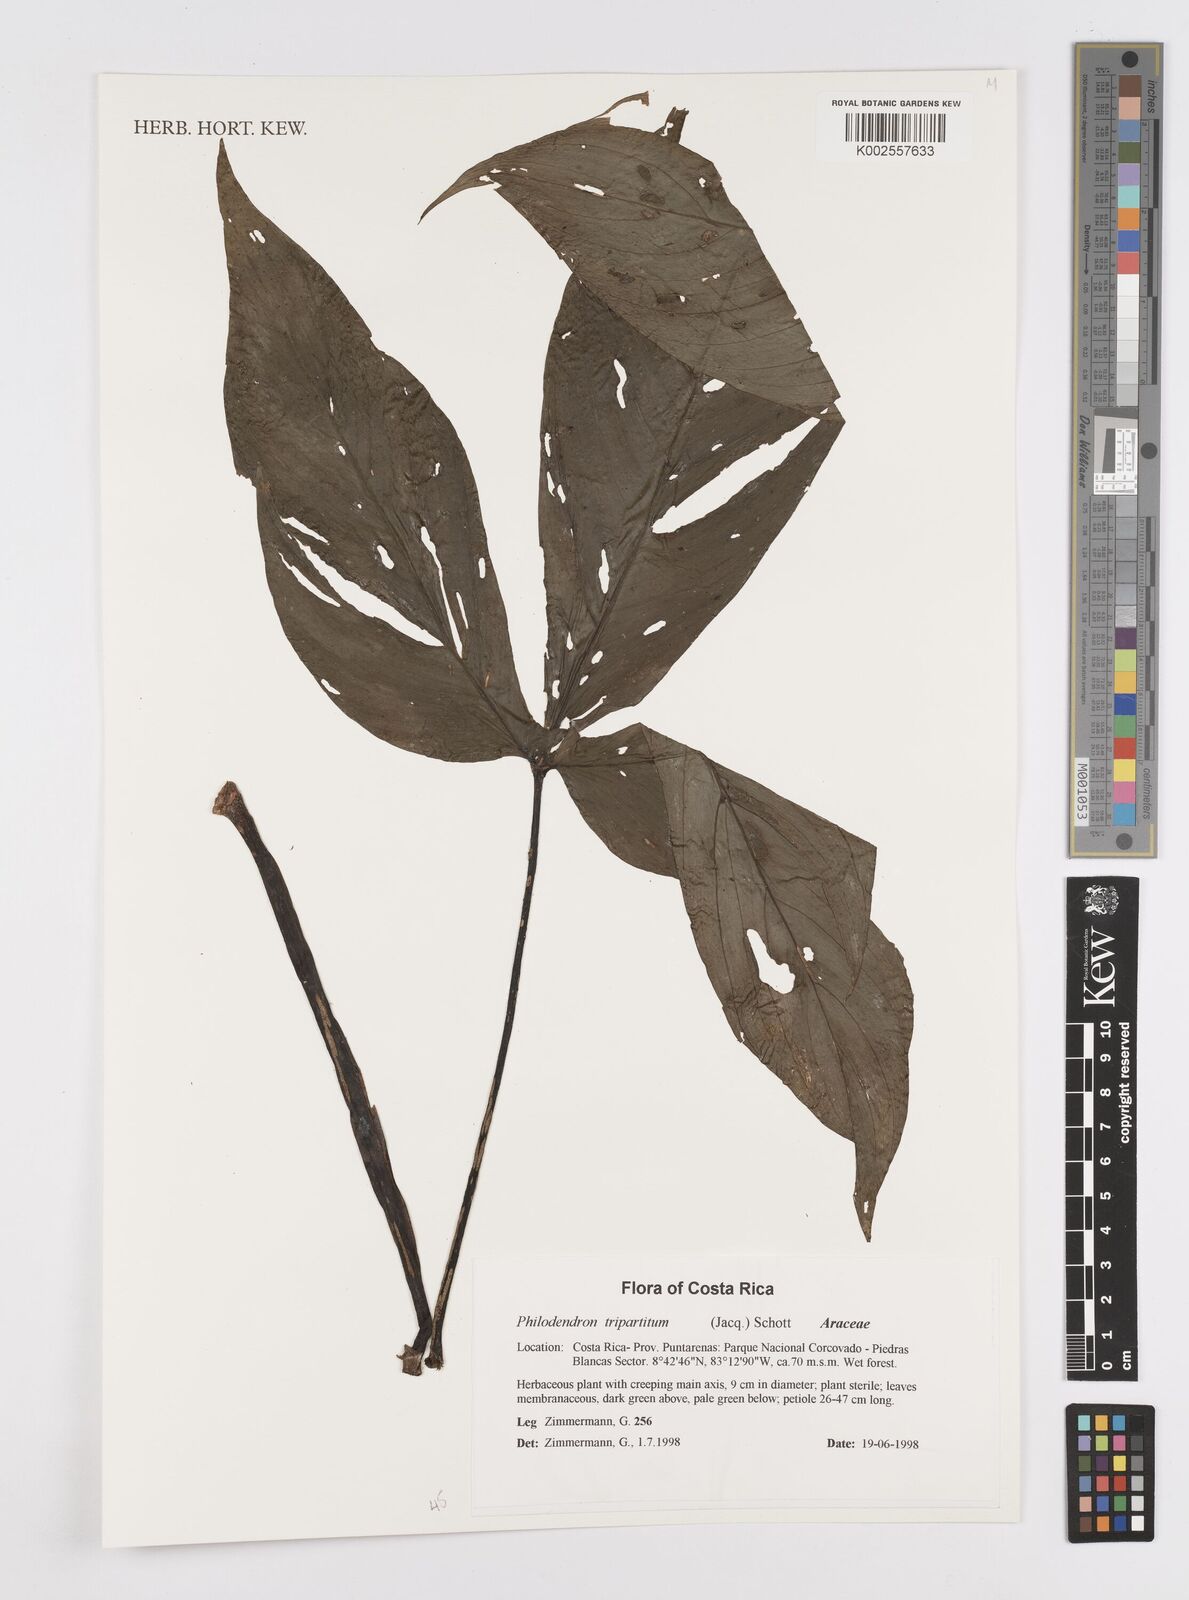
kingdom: Plantae
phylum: Tracheophyta
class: Liliopsida
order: Alismatales
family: Araceae
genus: Philodendron
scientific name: Philodendron tripartitum
